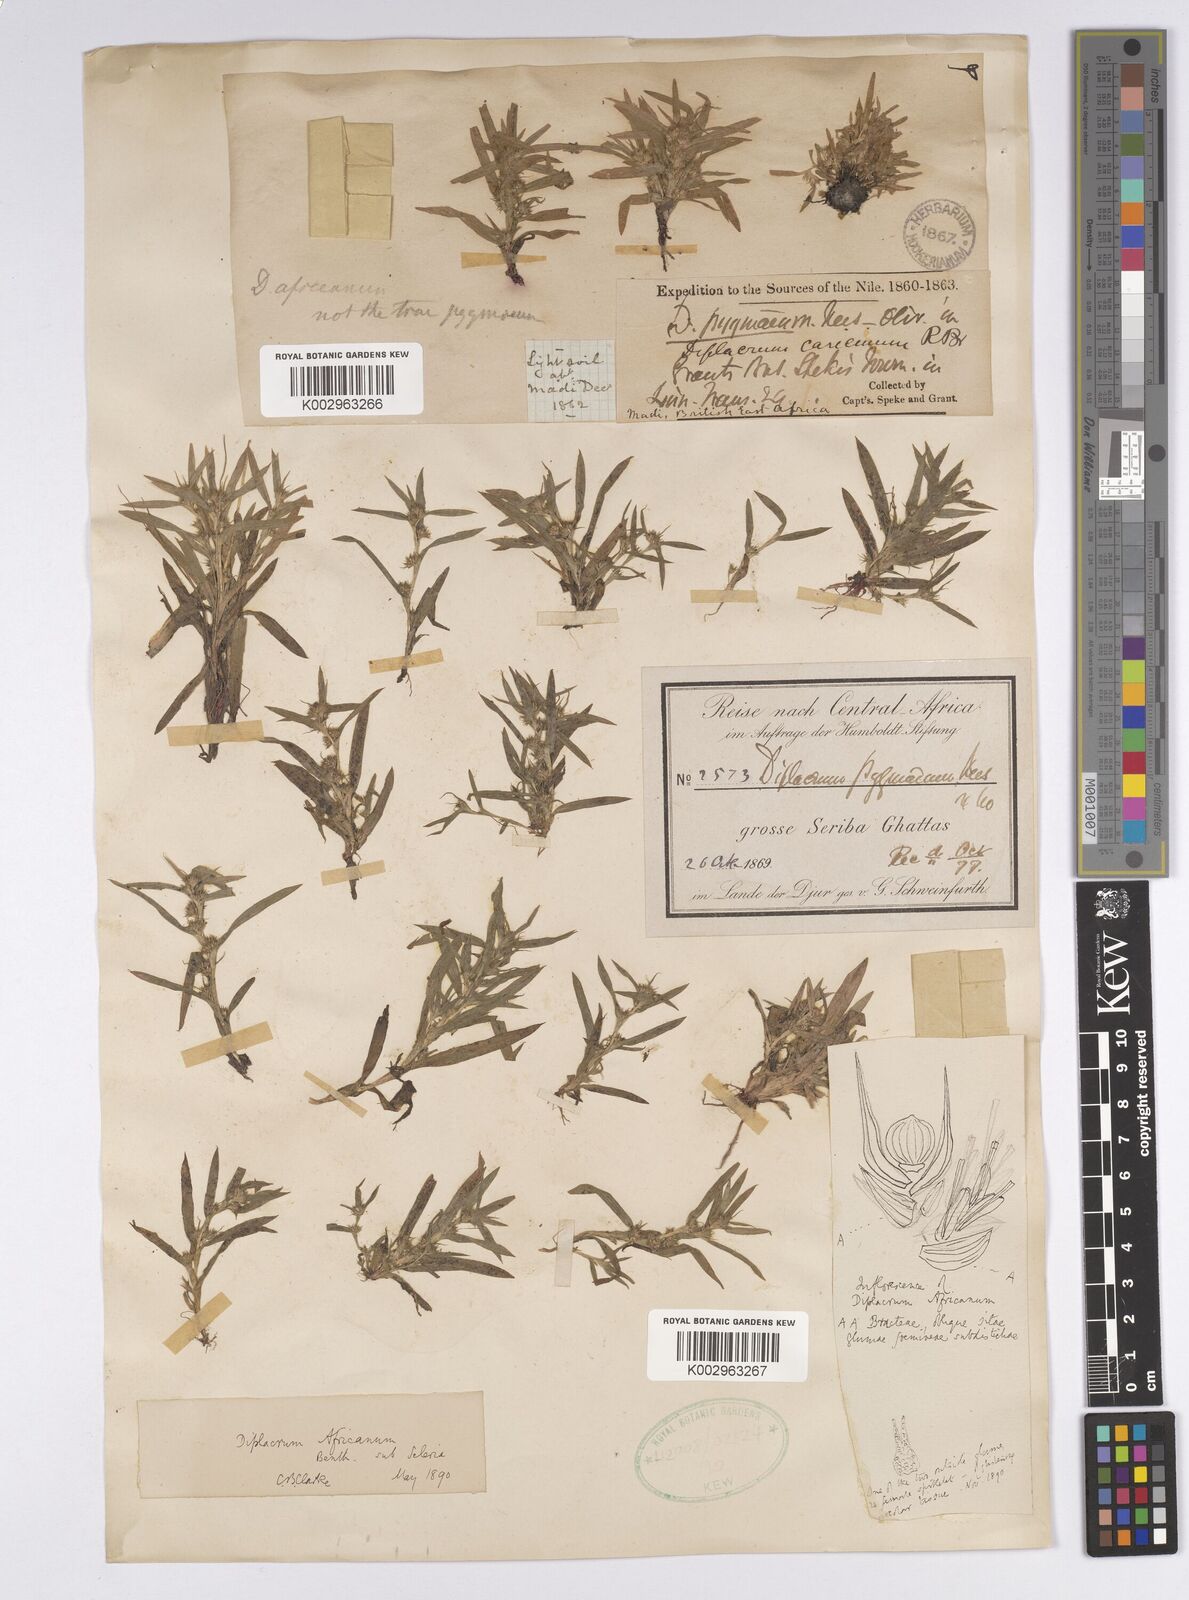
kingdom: Plantae
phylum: Tracheophyta
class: Liliopsida
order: Poales
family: Cyperaceae
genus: Diplacrum
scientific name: Diplacrum africanum
